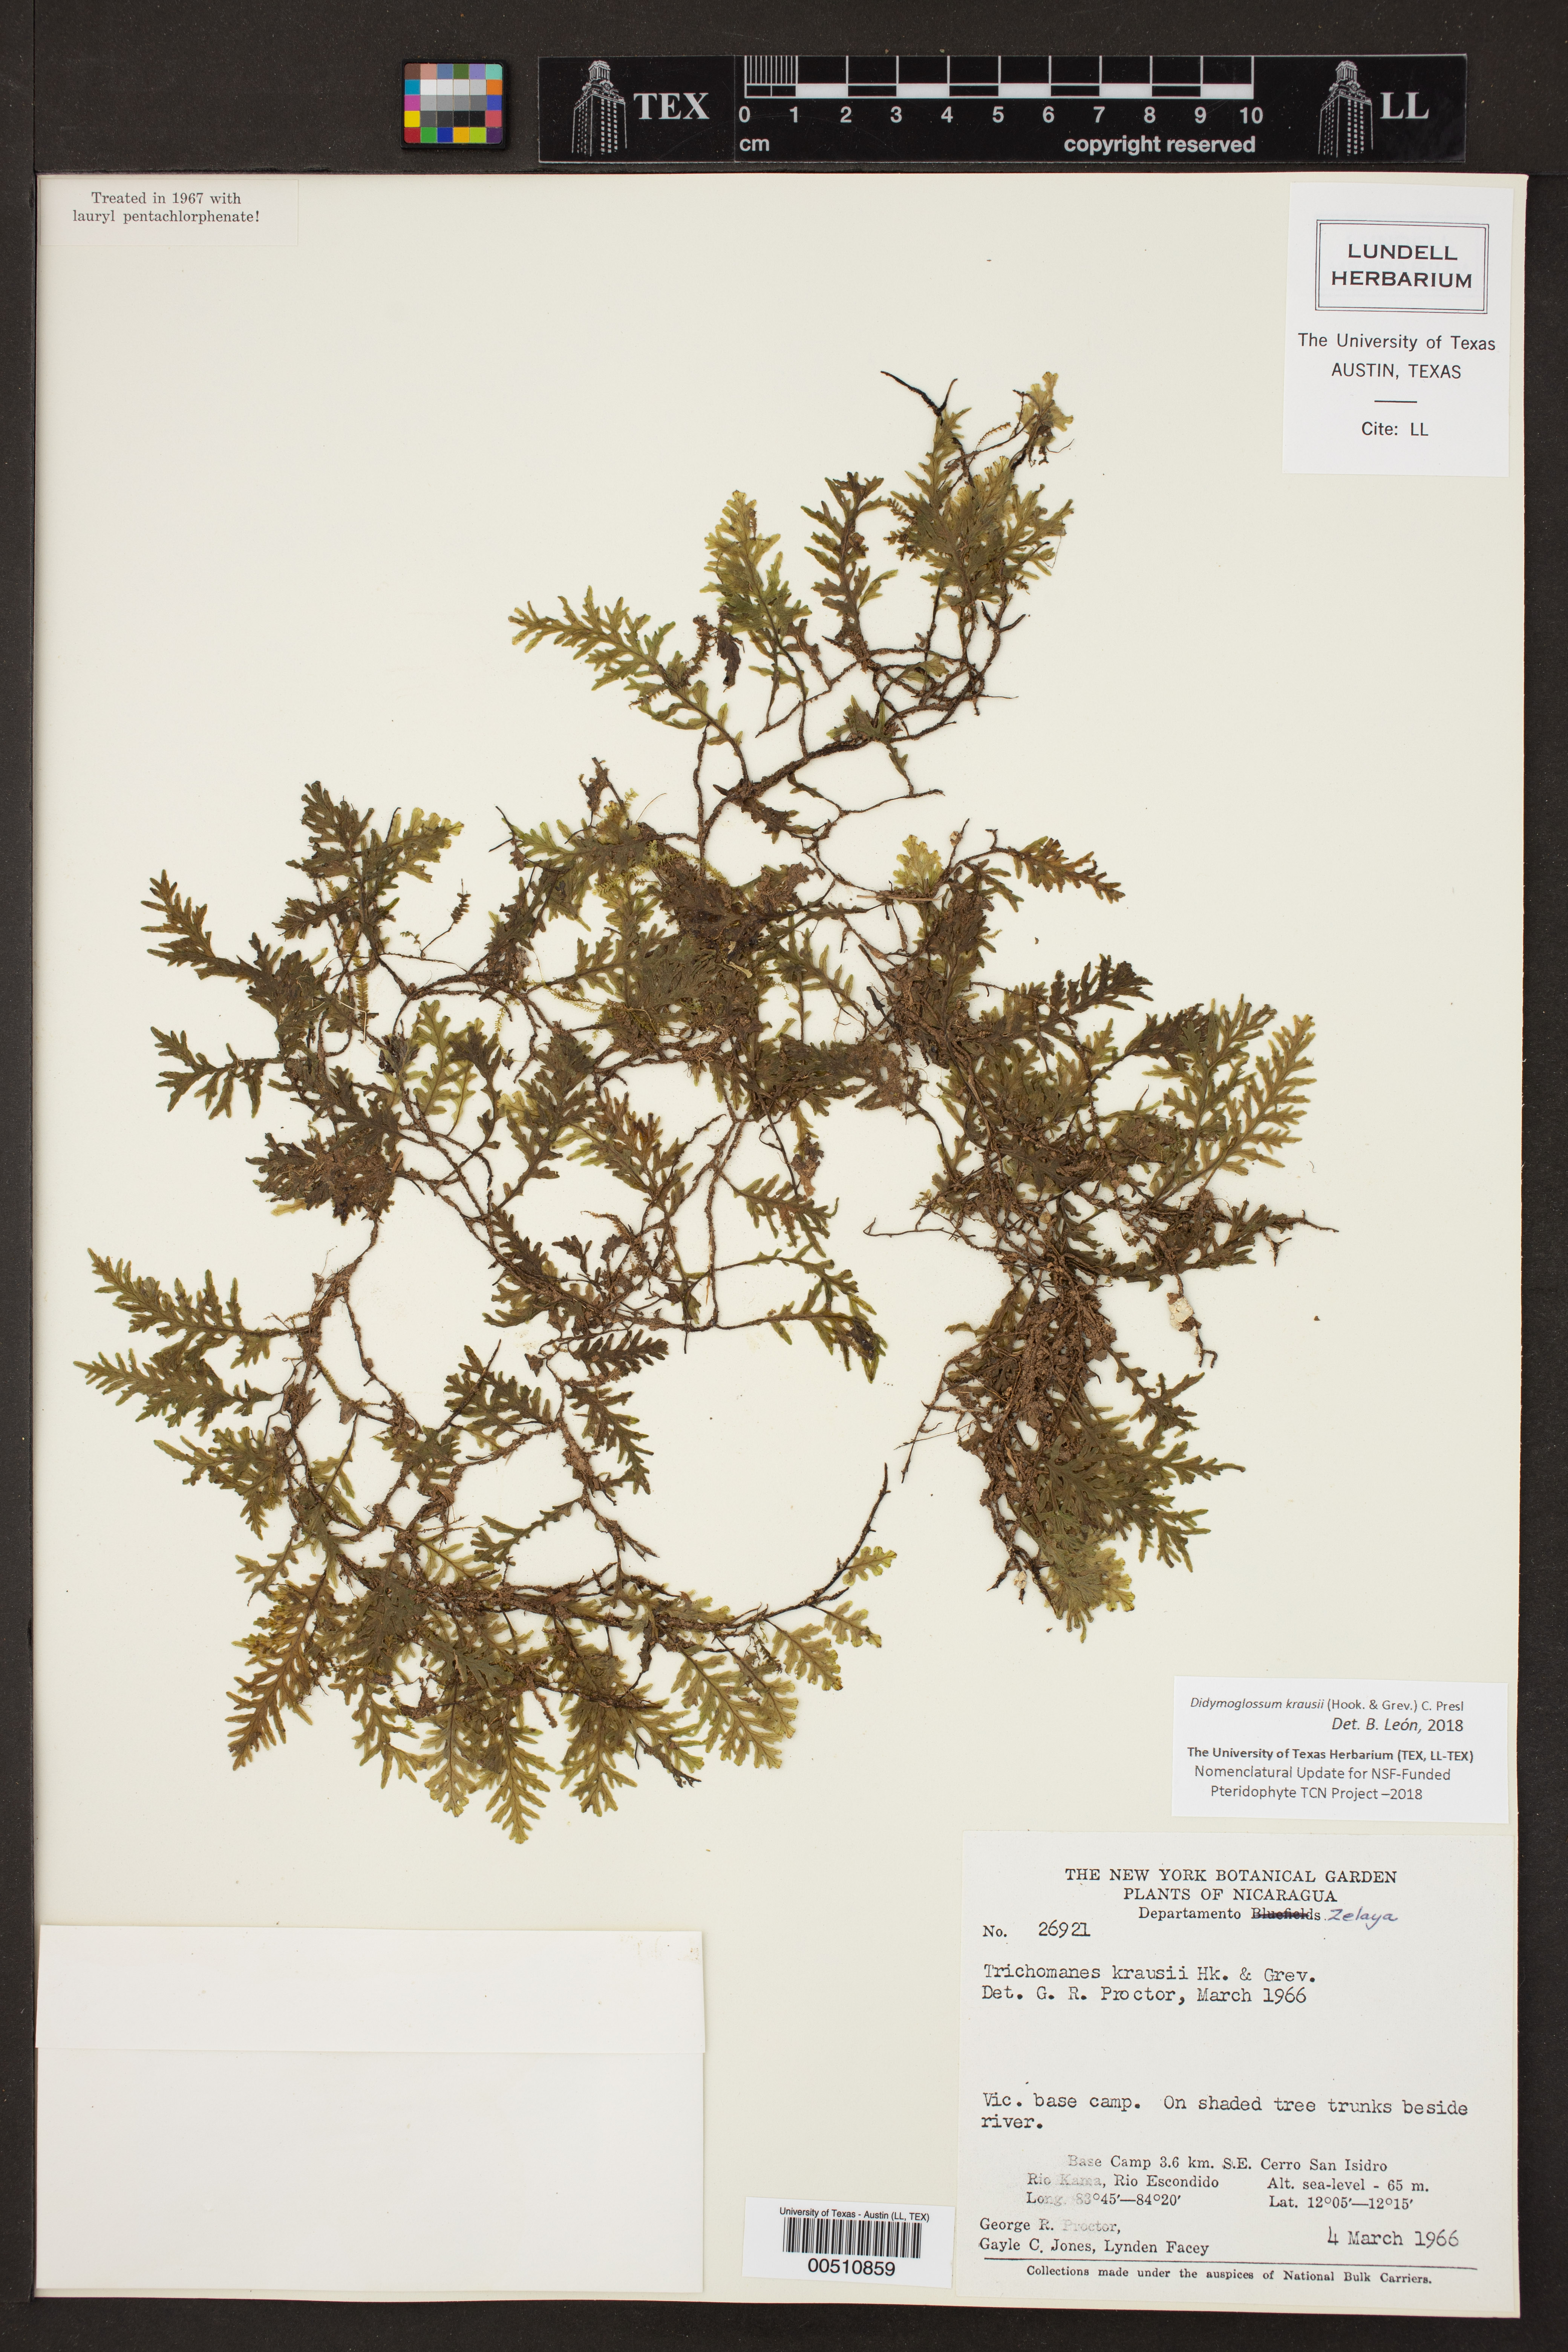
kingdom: Plantae
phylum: Tracheophyta
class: Polypodiopsida
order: Hymenophyllales
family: Hymenophyllaceae
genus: Didymoglossum
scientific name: Didymoglossum kraussii
